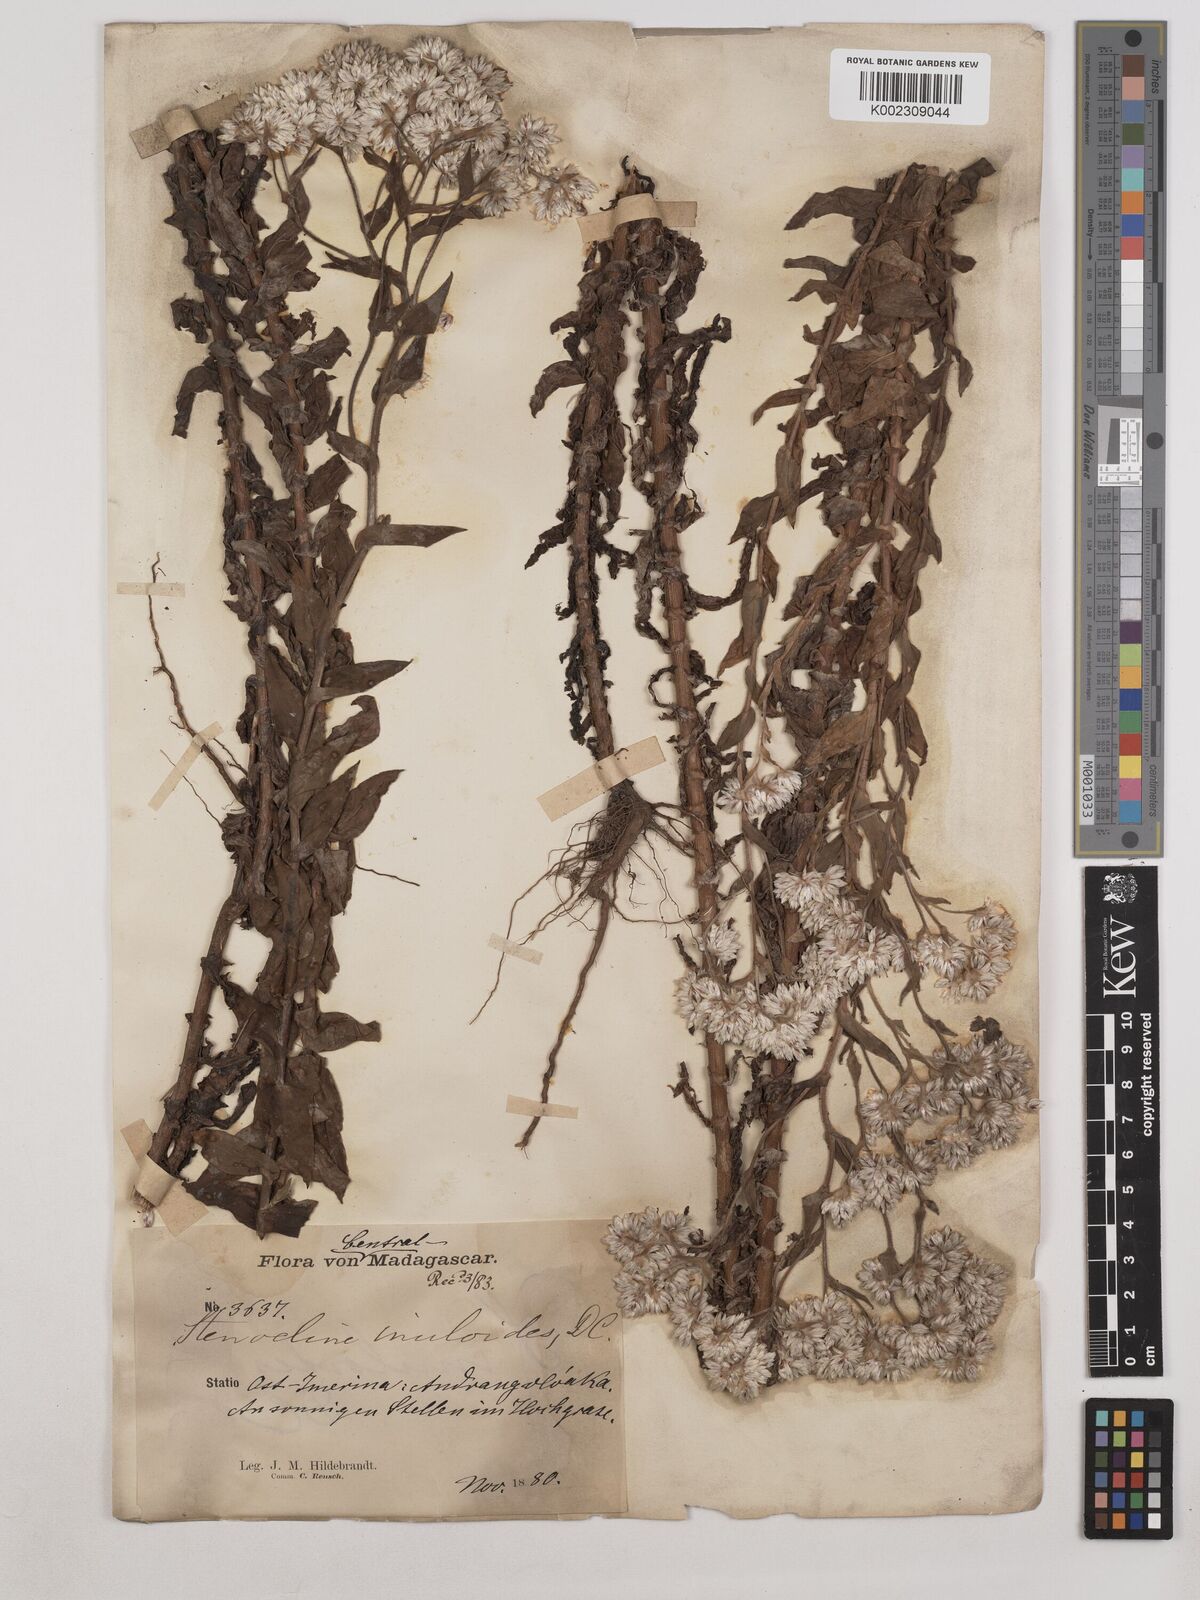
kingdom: Plantae
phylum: Tracheophyta
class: Magnoliopsida
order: Asterales
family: Asteraceae
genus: Stenocline
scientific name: Stenocline inuloides
